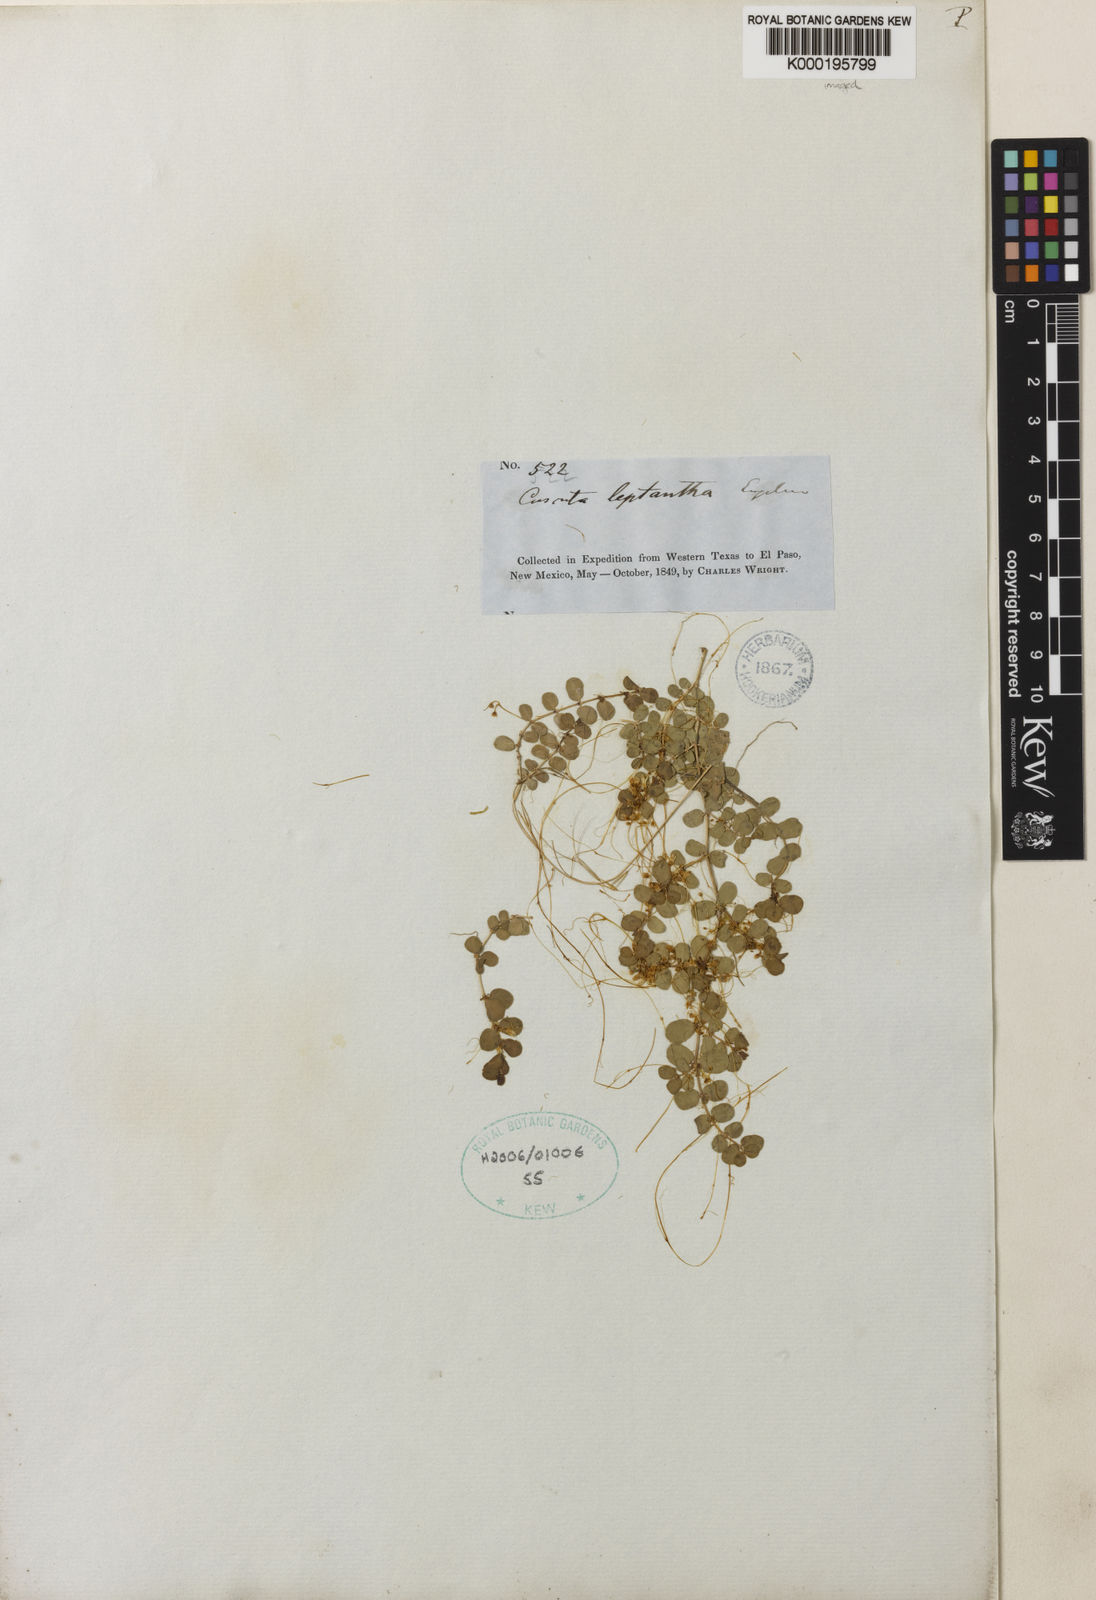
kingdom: Plantae
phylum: Tracheophyta
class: Magnoliopsida
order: Solanales
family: Convolvulaceae
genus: Cuscuta
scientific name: Cuscuta leptantha
